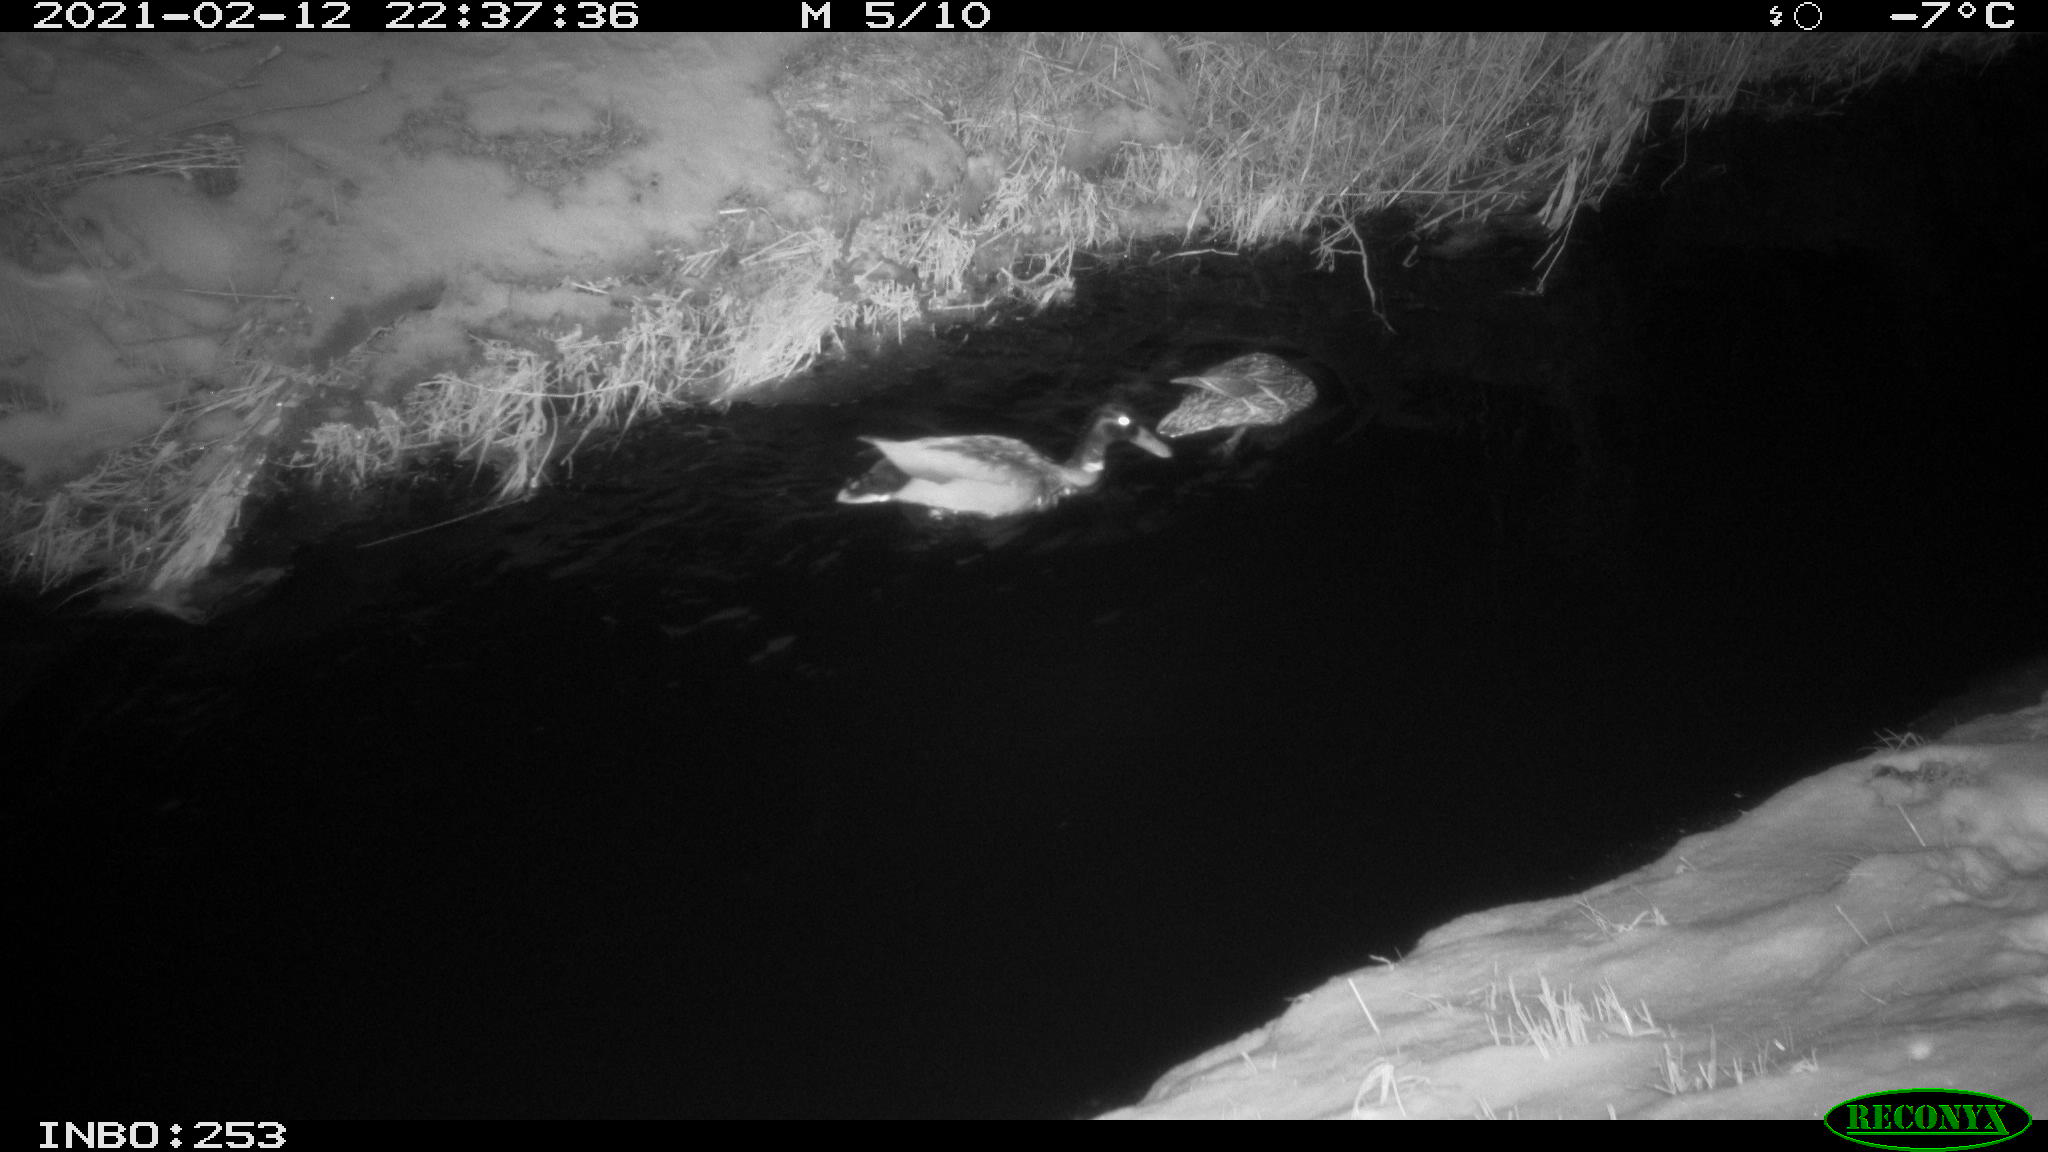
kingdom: Animalia
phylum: Chordata
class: Aves
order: Anseriformes
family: Anatidae
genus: Anas
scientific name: Anas platyrhynchos
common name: Mallard
